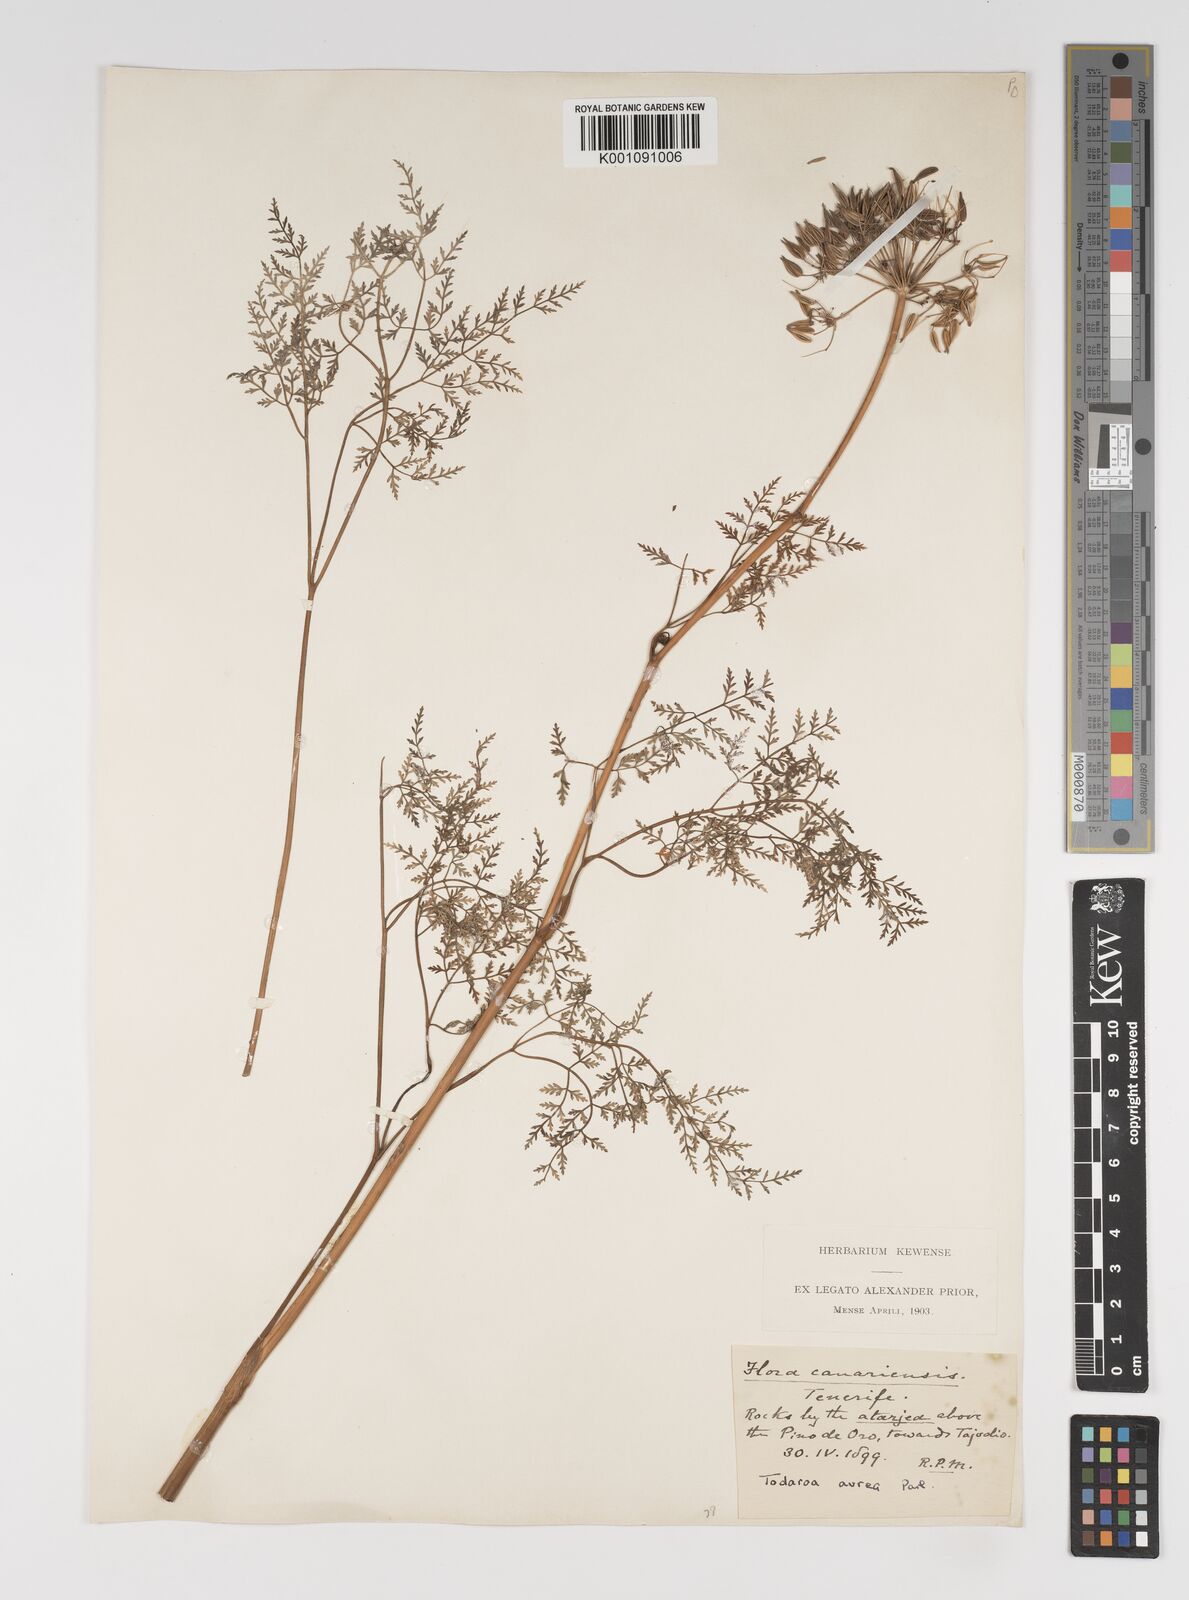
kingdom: Plantae
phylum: Tracheophyta
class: Magnoliopsida
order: Apiales
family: Apiaceae
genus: Todaroa
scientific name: Todaroa aurea
